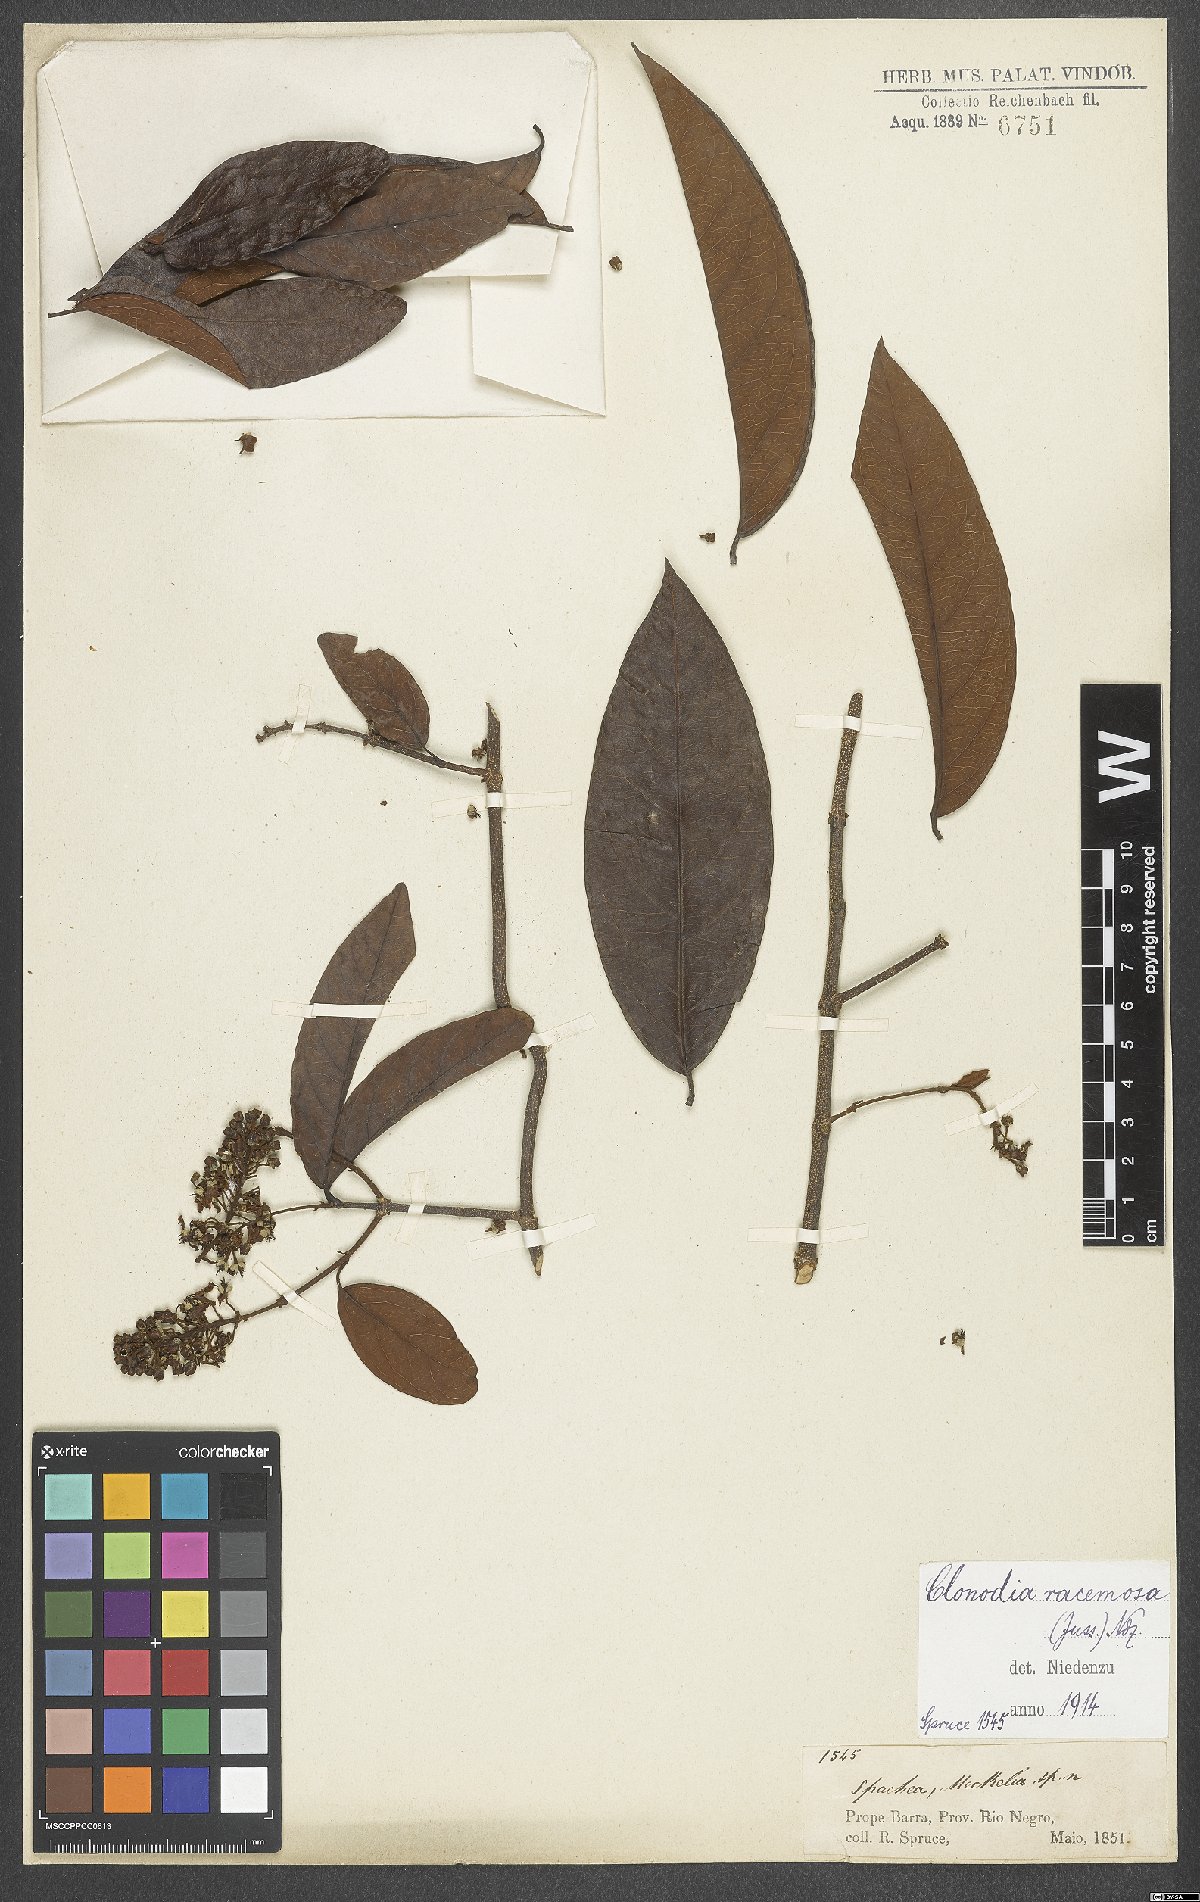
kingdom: Plantae
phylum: Tracheophyta
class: Magnoliopsida
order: Malpighiales
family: Malpighiaceae
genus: Heteropterys
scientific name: Heteropterys racemosa
